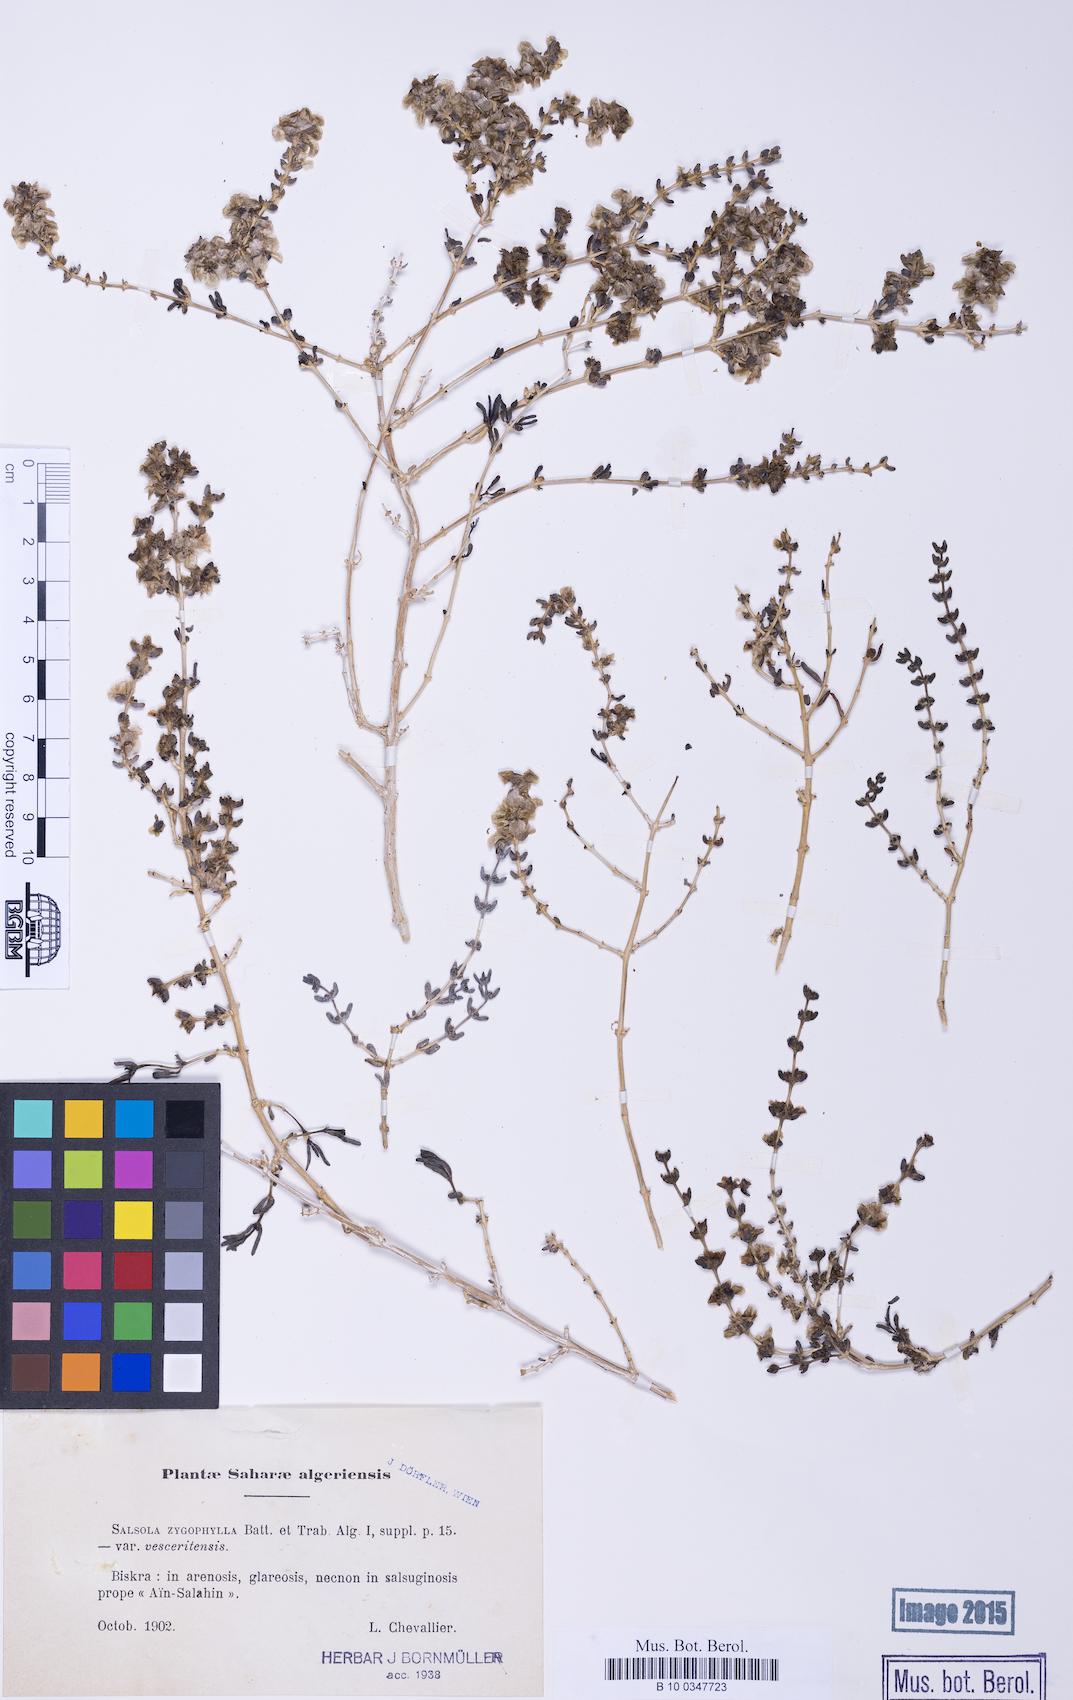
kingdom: Plantae
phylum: Tracheophyta
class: Magnoliopsida
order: Caryophyllales
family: Amaranthaceae
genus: Salsola
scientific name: Salsola cruciata
